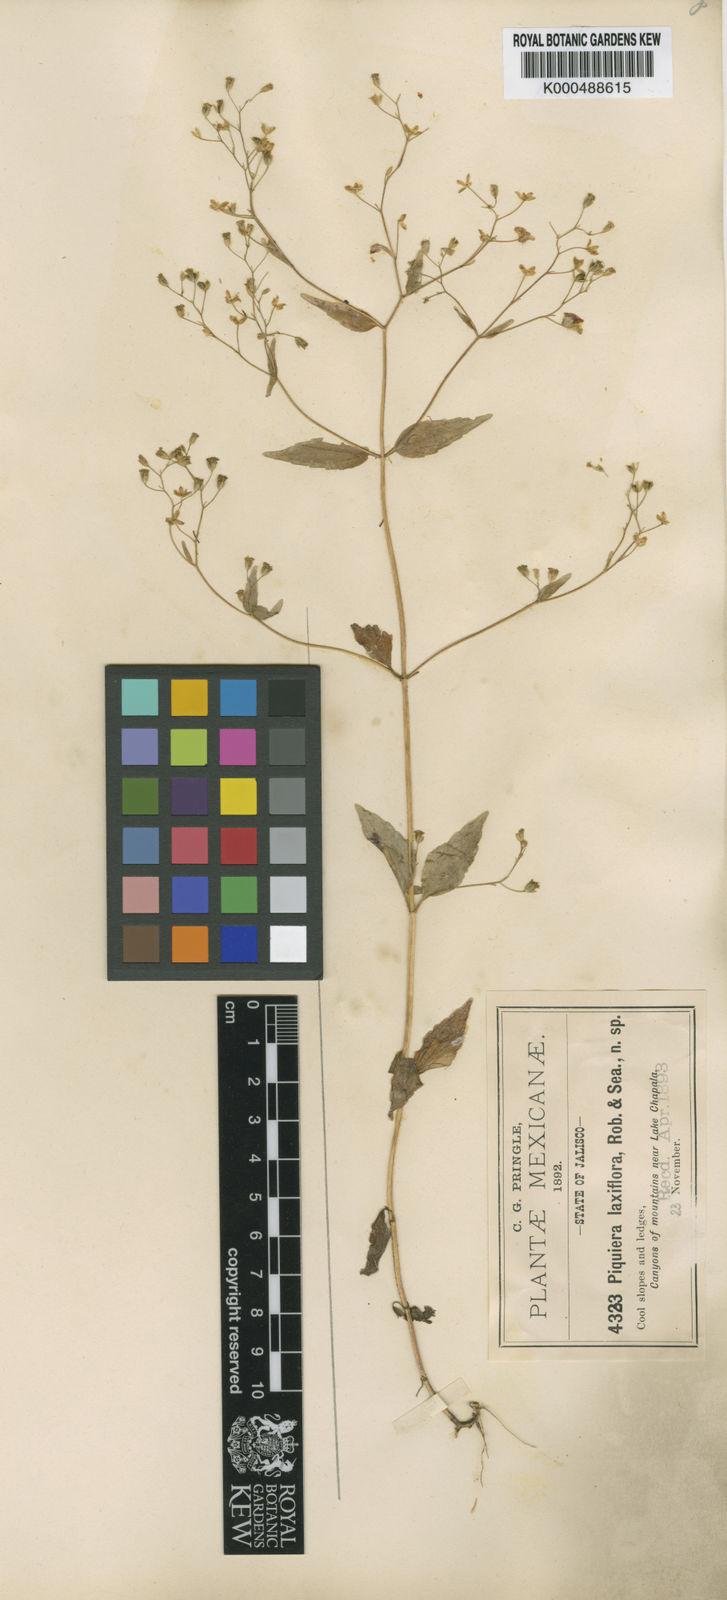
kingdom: Plantae
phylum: Tracheophyta
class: Magnoliopsida
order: Asterales
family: Asteraceae
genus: Piqueria
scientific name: Piqueria laxiflora
